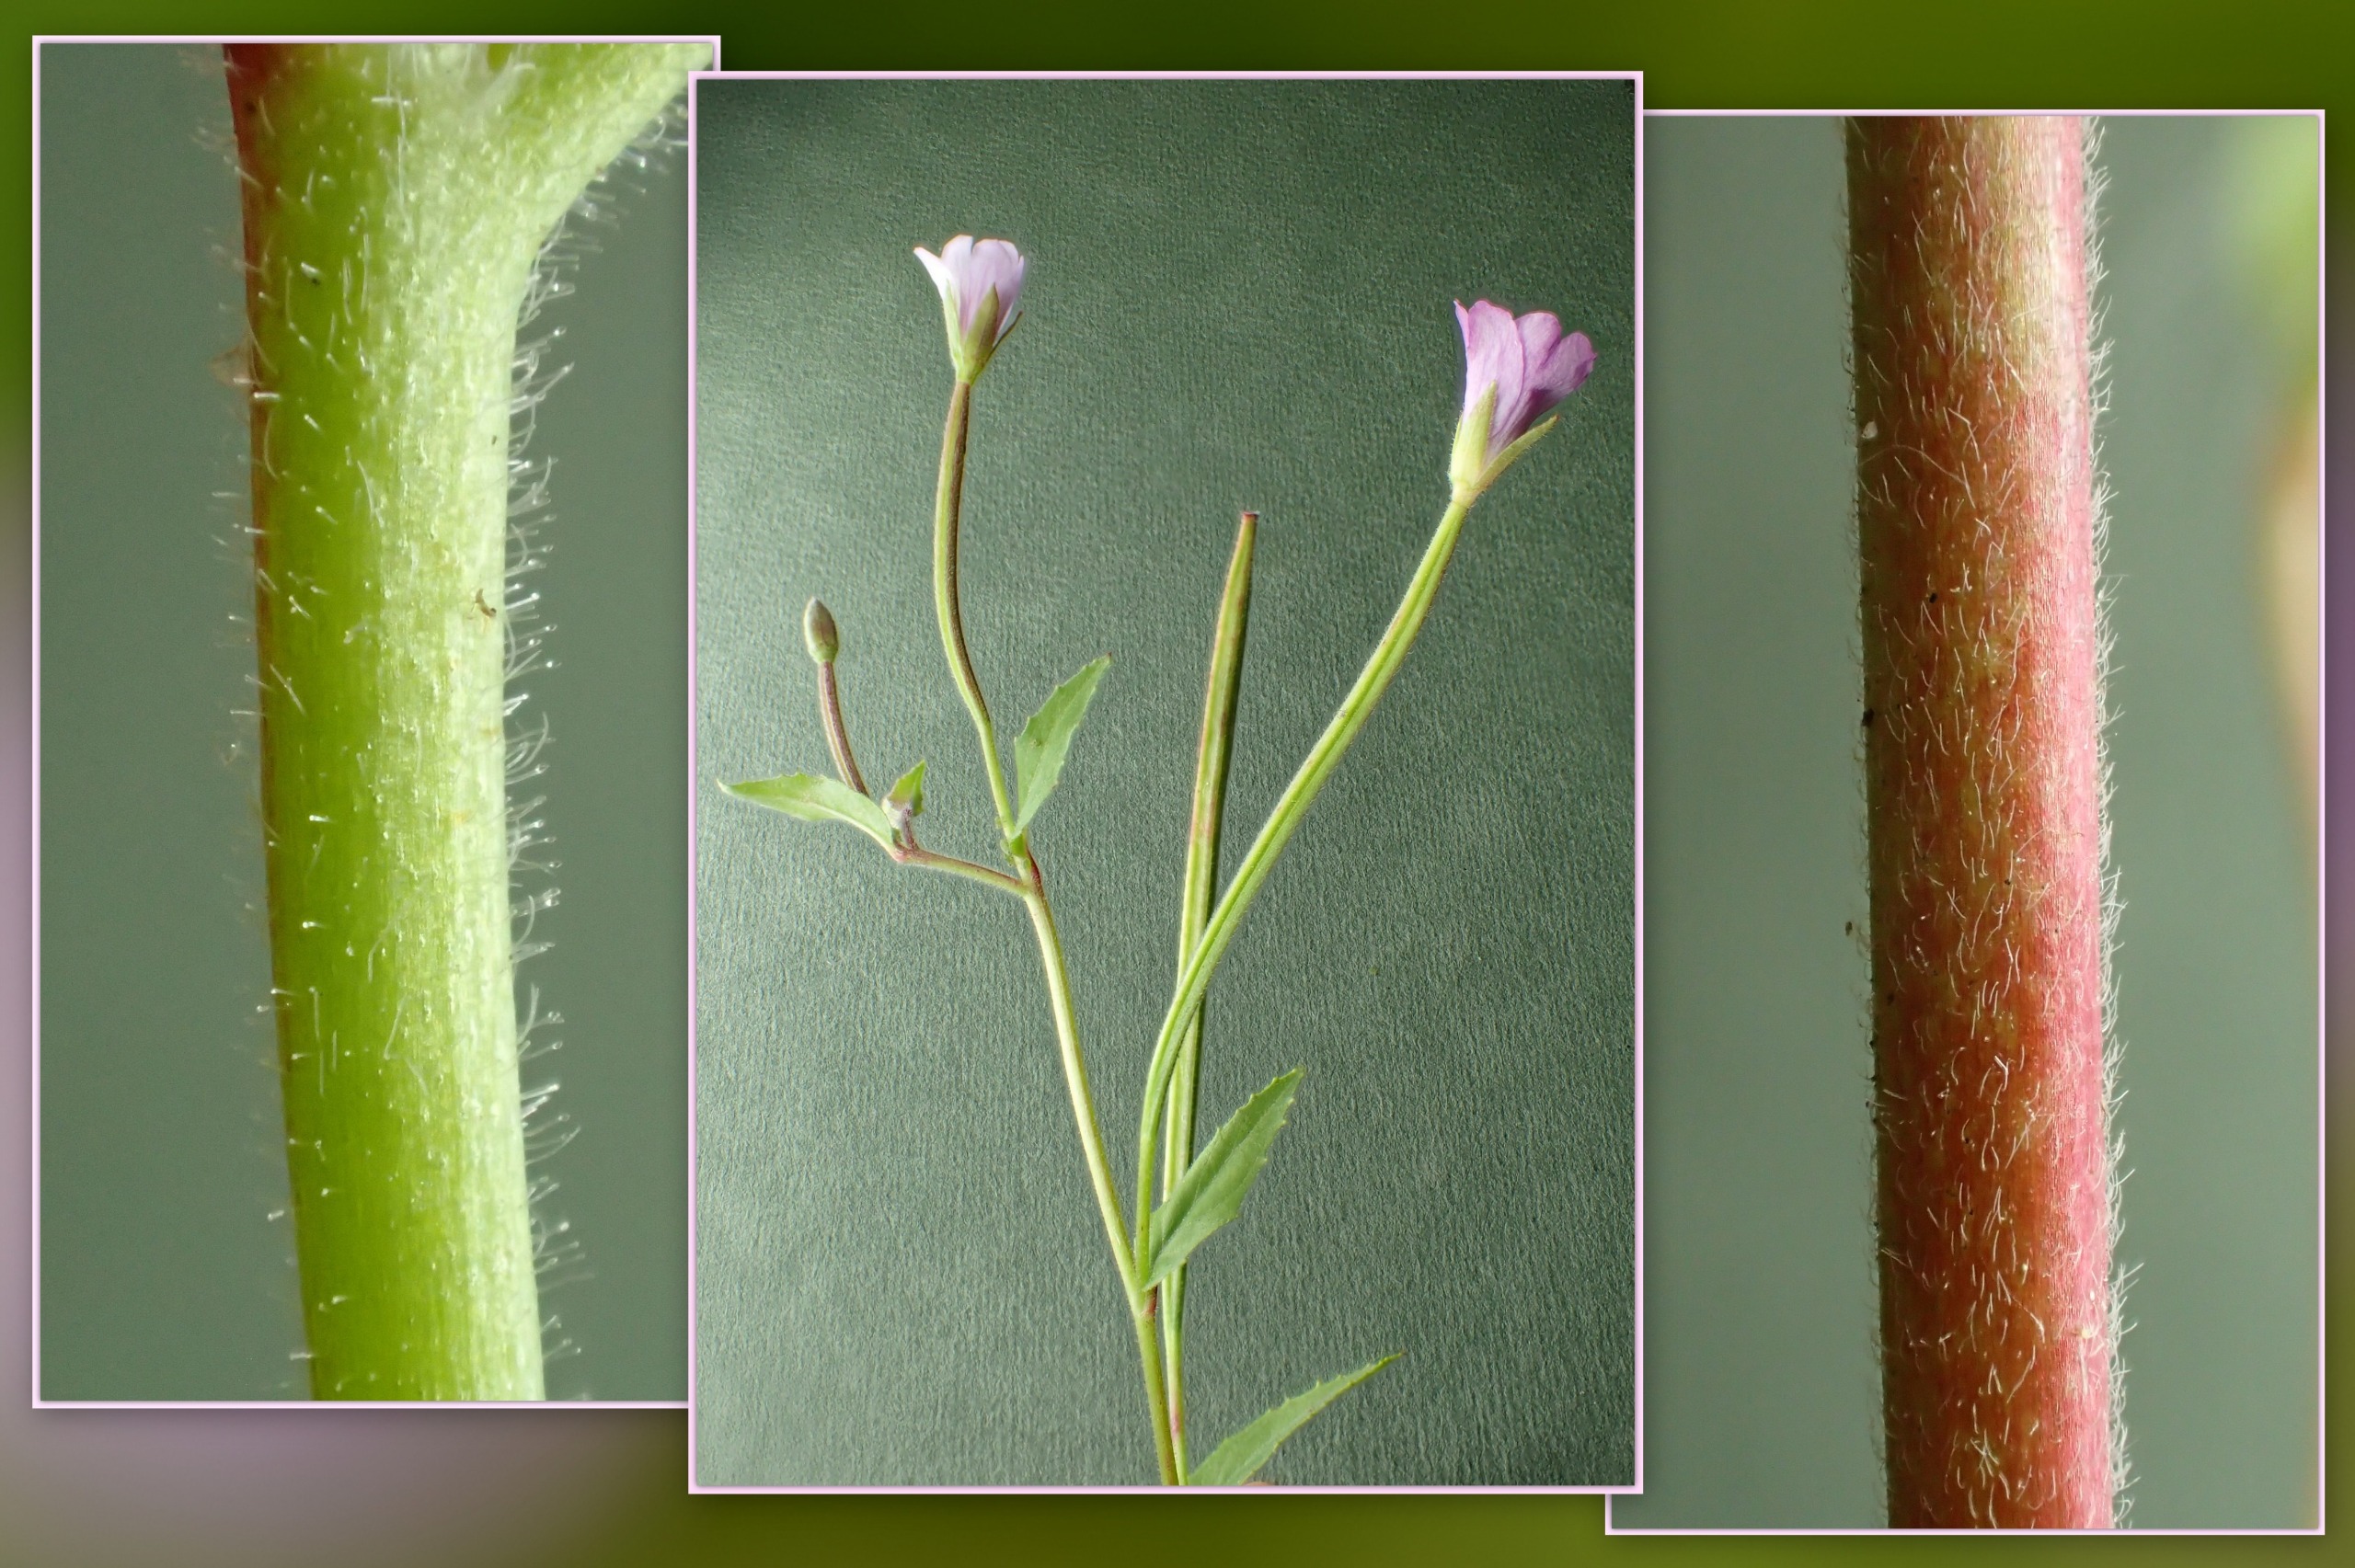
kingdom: Plantae
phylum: Tracheophyta
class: Magnoliopsida
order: Myrtales
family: Onagraceae
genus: Epilobium
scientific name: Epilobium montanum
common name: Glat dueurt
